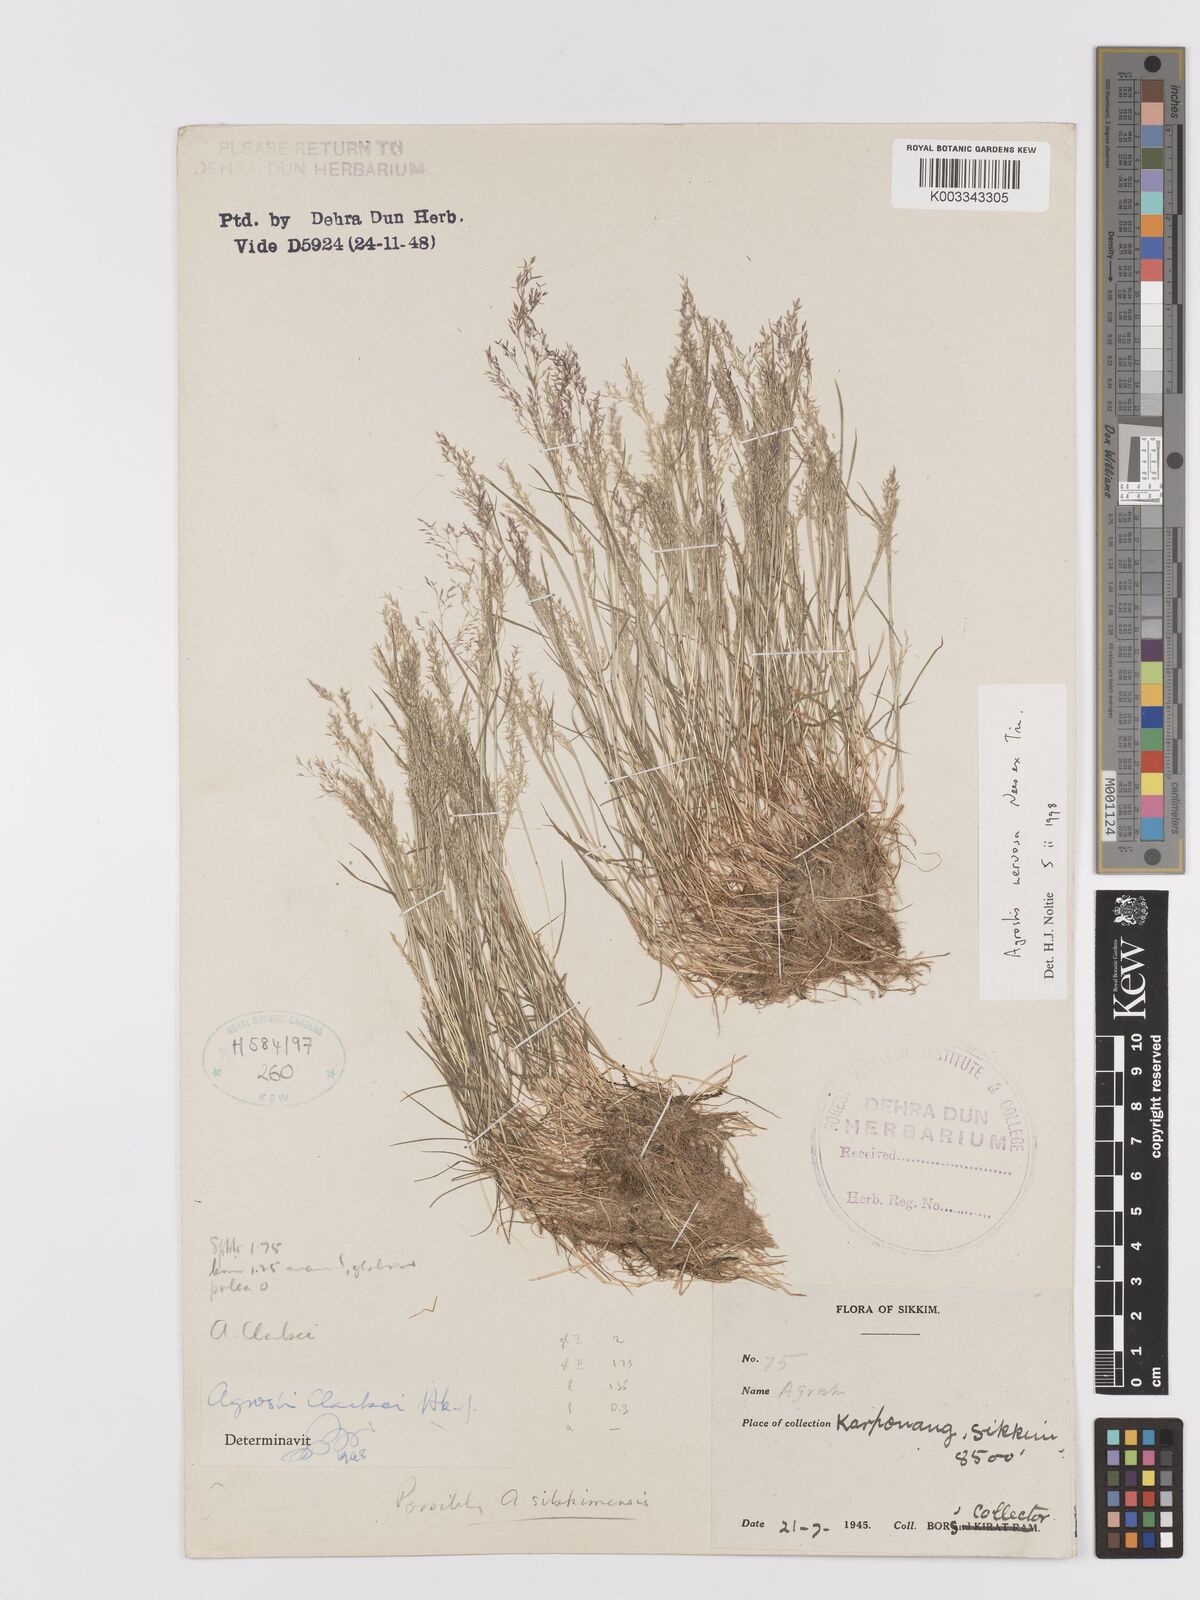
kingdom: Plantae
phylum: Tracheophyta
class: Liliopsida
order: Poales
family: Poaceae
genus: Agrostis
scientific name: Agrostis nervosa
